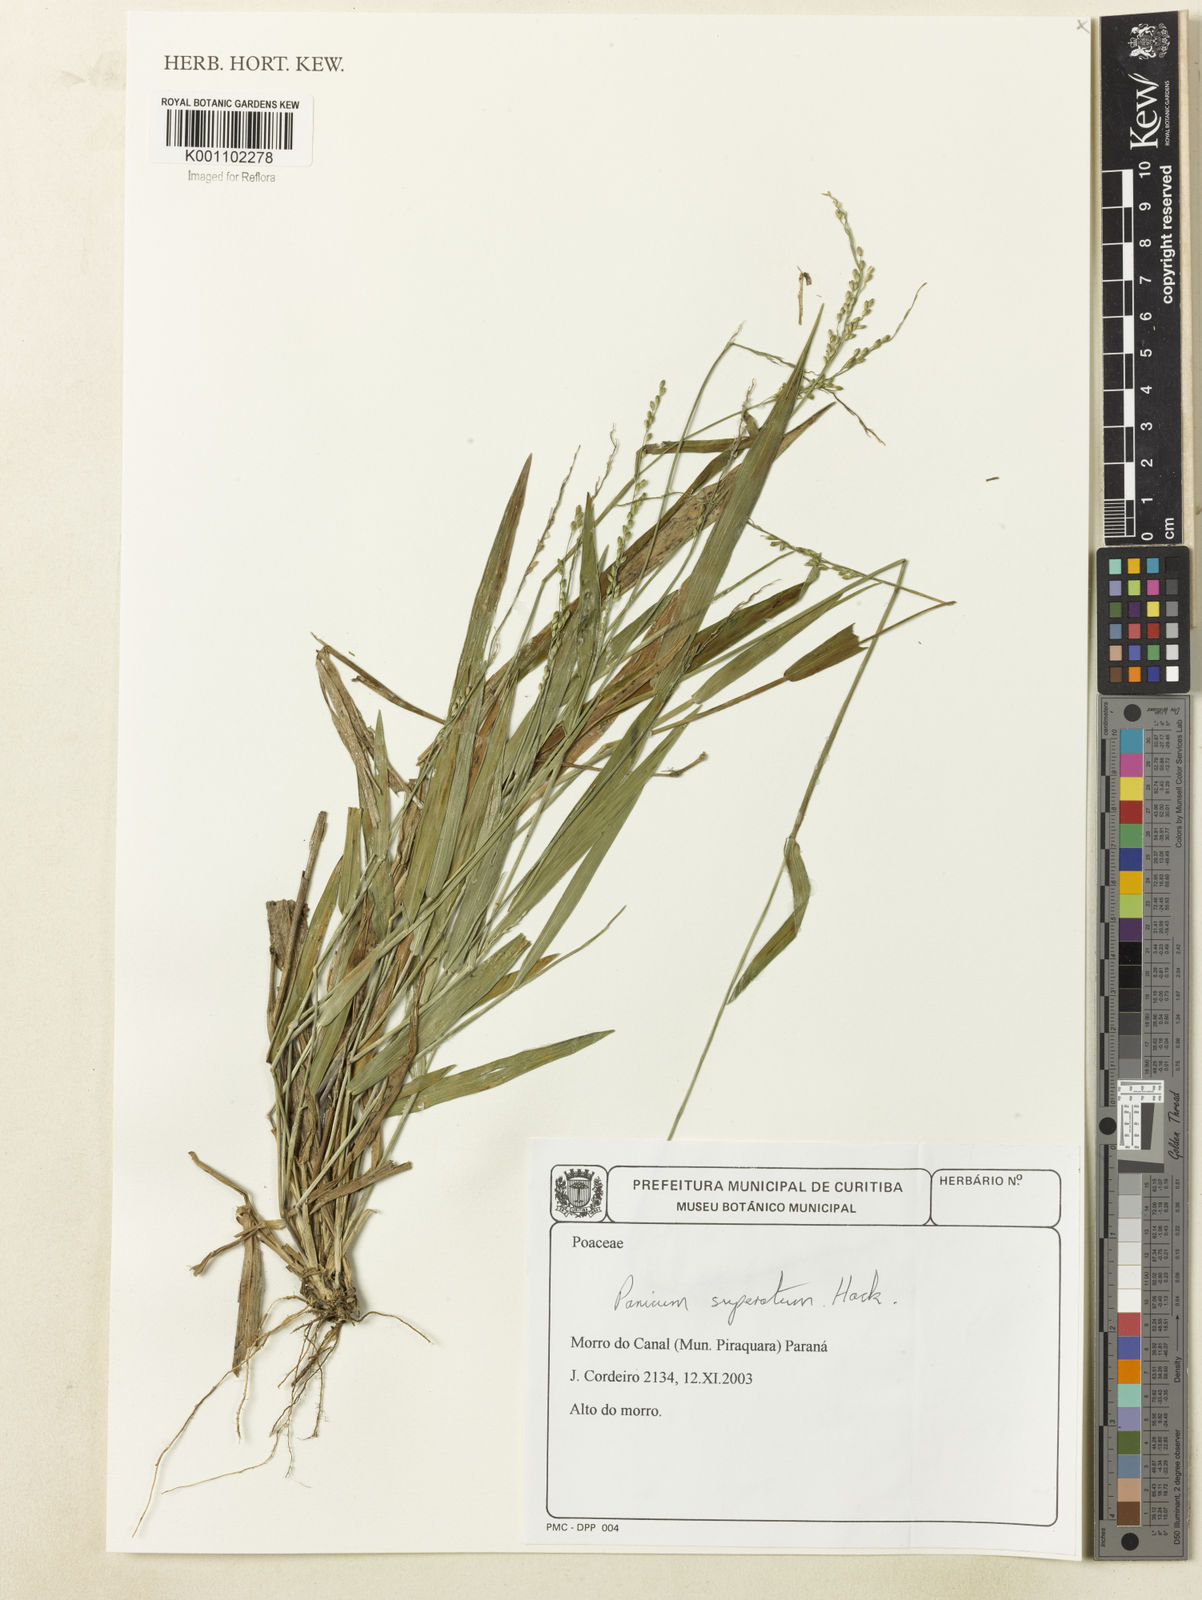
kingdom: Plantae
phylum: Tracheophyta
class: Liliopsida
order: Poales
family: Poaceae
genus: Dichanthelium
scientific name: Dichanthelium superatum
